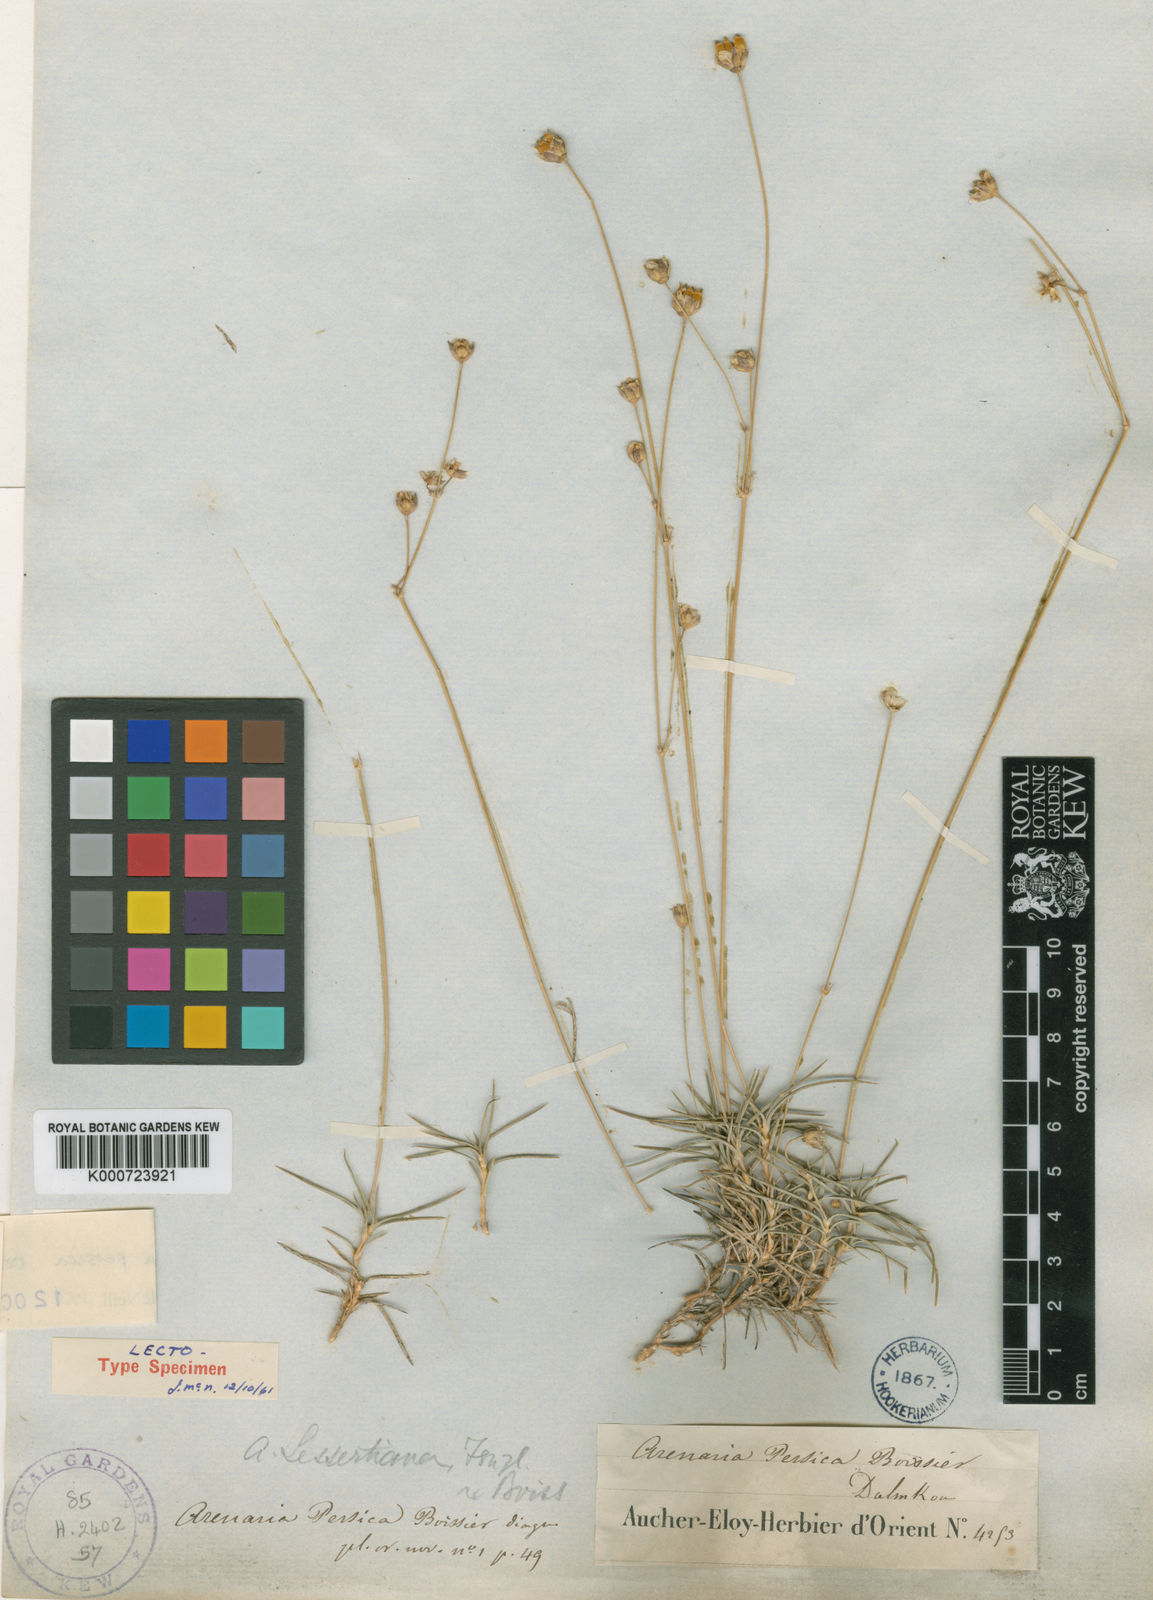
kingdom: Plantae
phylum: Tracheophyta
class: Magnoliopsida
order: Caryophyllales
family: Caryophyllaceae
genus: Eremogone
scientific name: Eremogone persica
